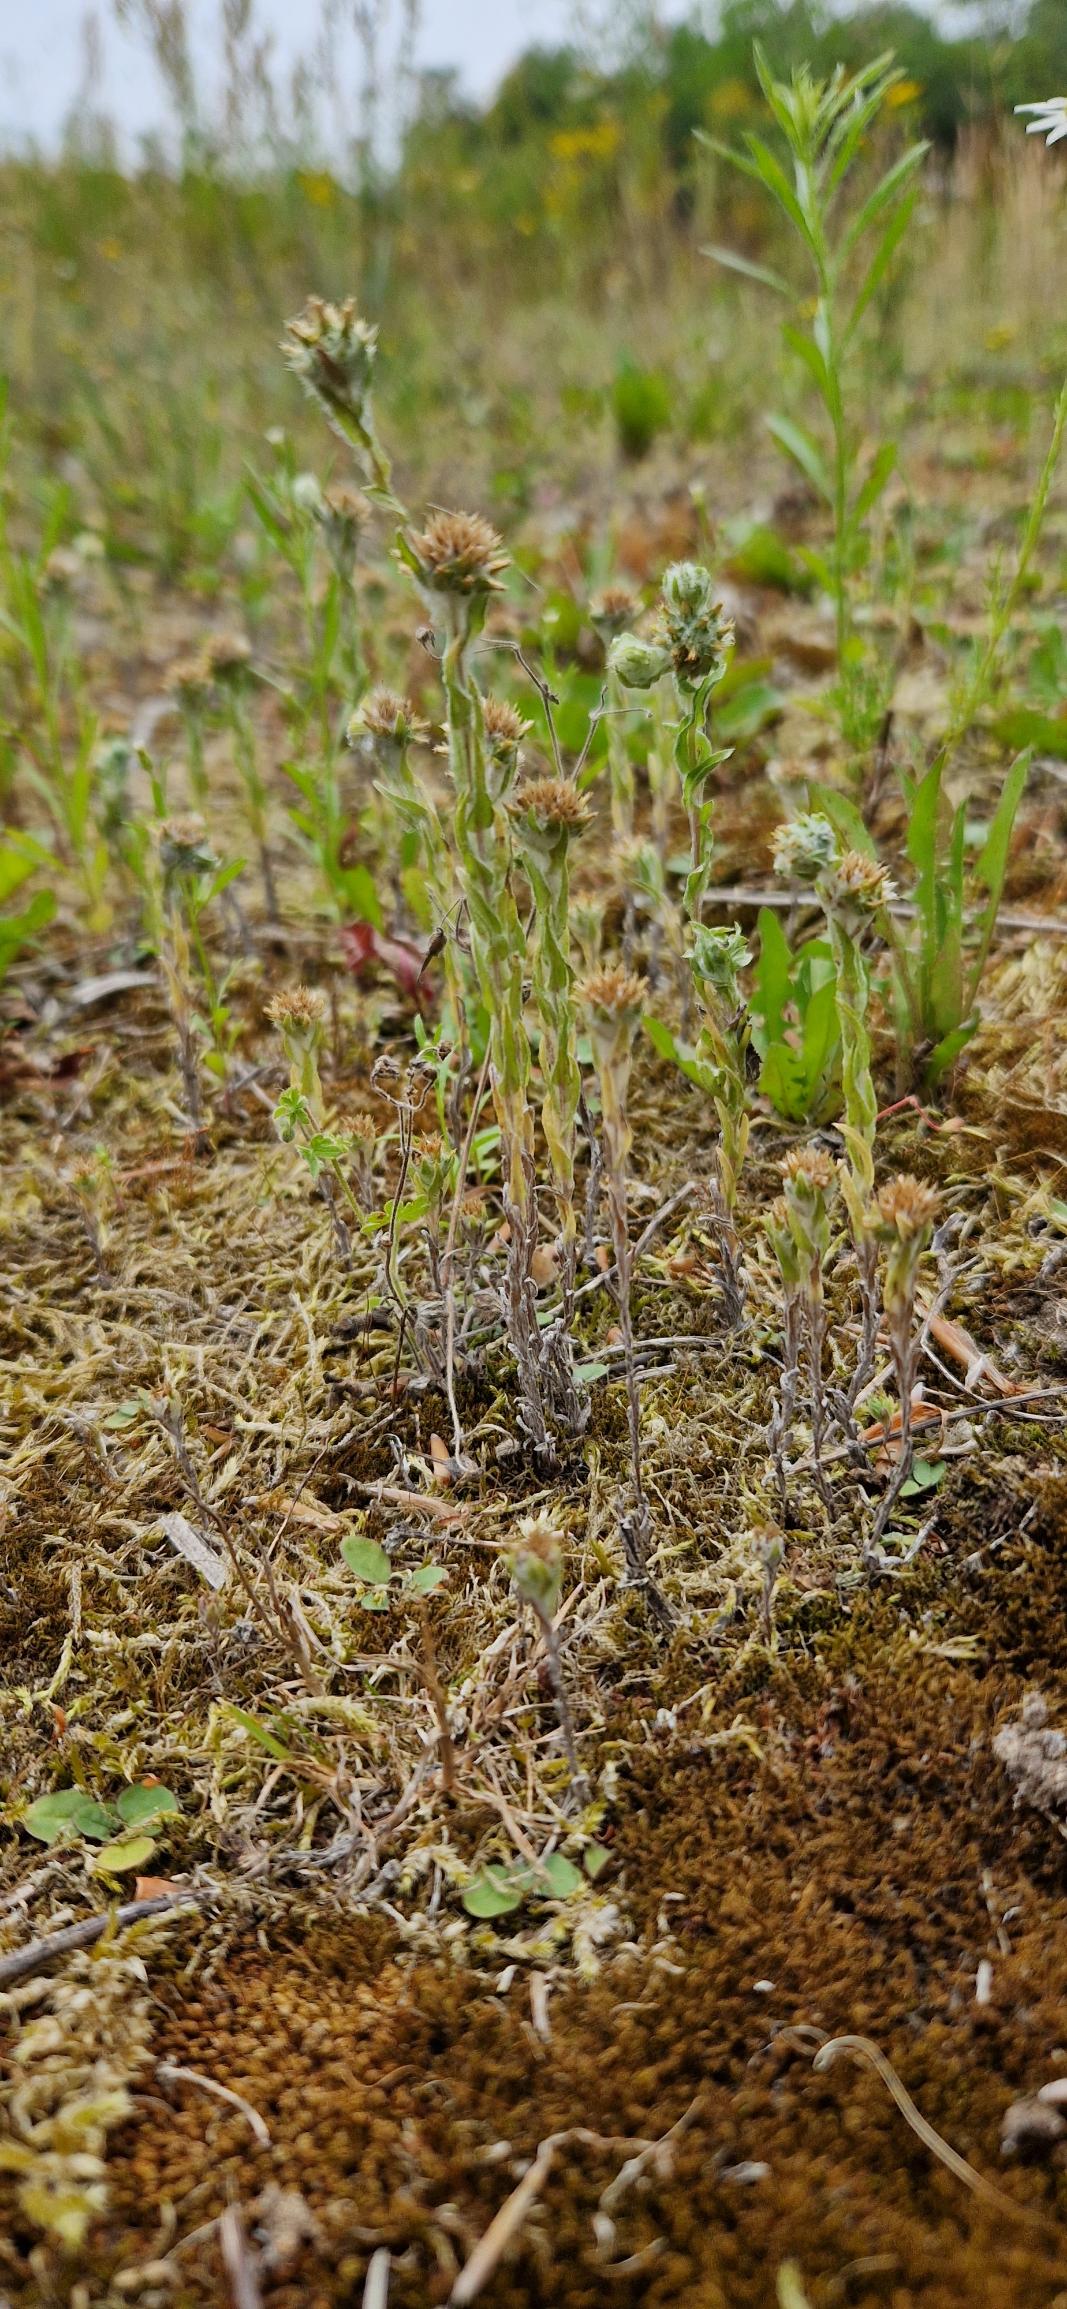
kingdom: Plantae
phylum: Tracheophyta
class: Magnoliopsida
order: Asterales
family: Asteraceae
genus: Filago
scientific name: Filago germanica
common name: Kugle-museurt
